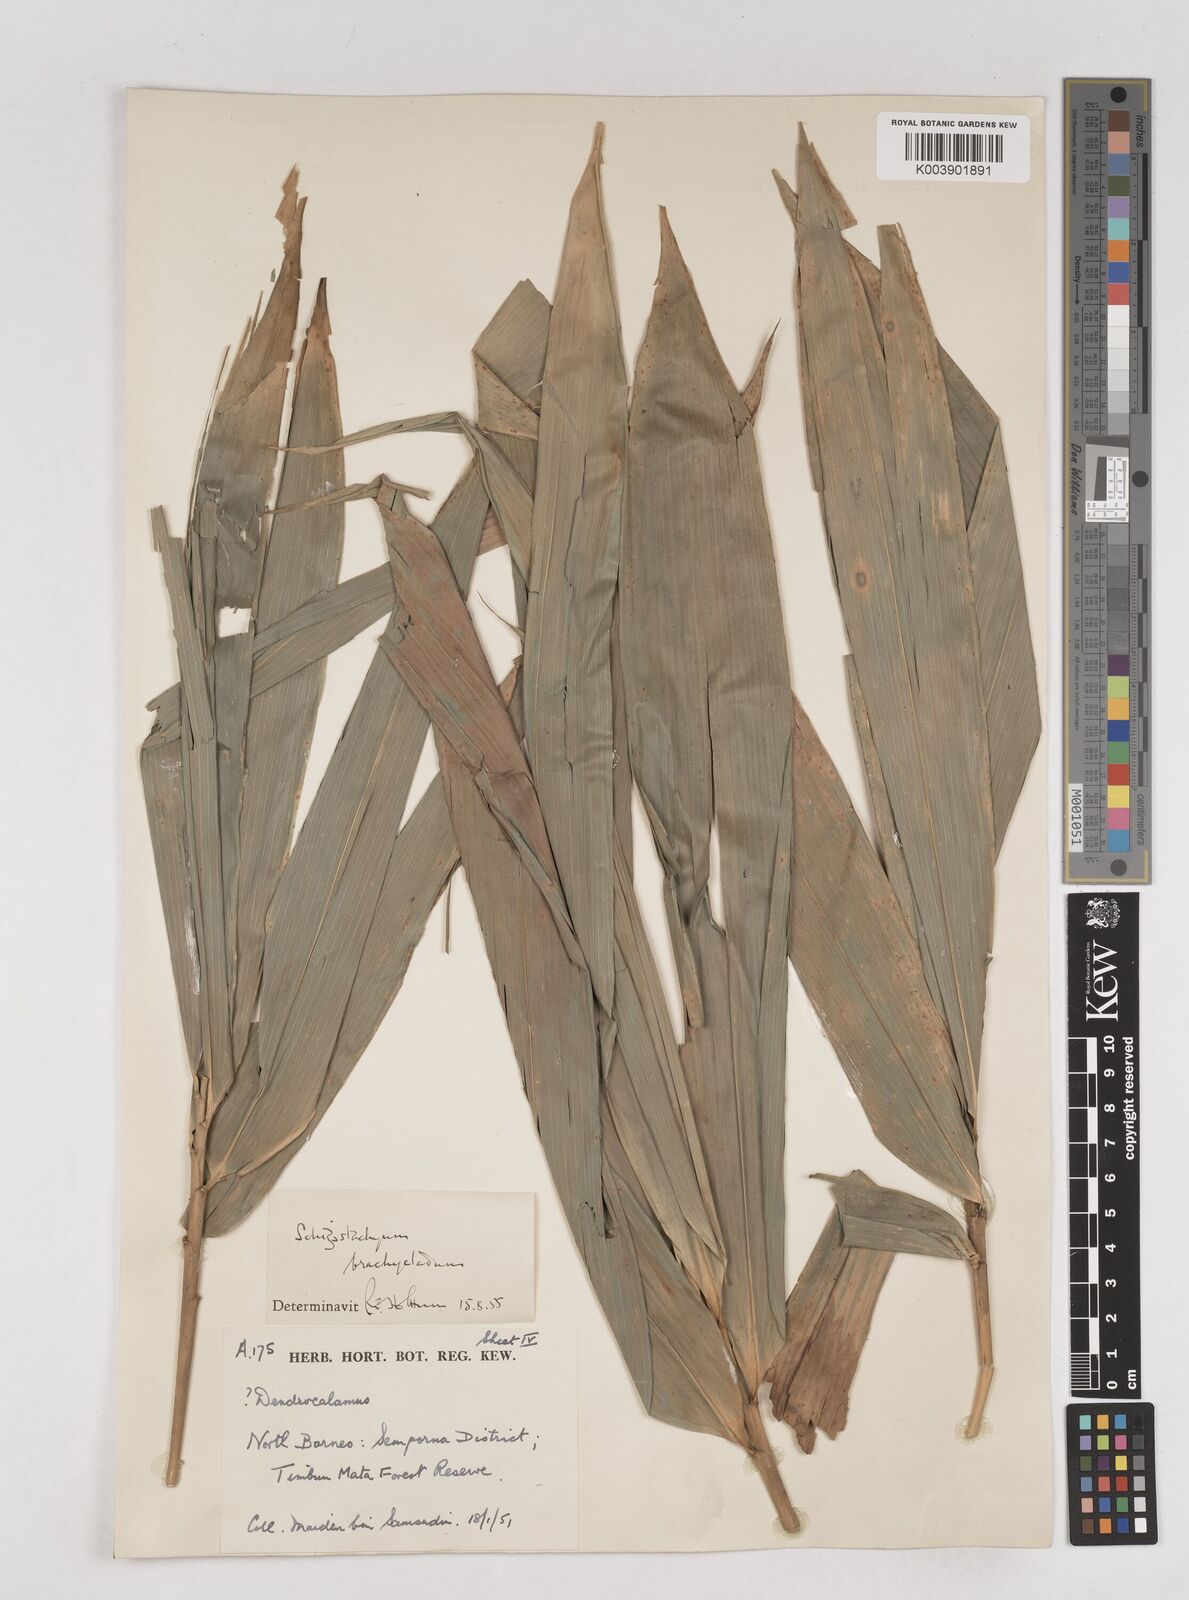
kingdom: Plantae
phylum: Tracheophyta
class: Liliopsida
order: Poales
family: Poaceae
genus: Schizostachyum
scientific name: Schizostachyum brachycladum
